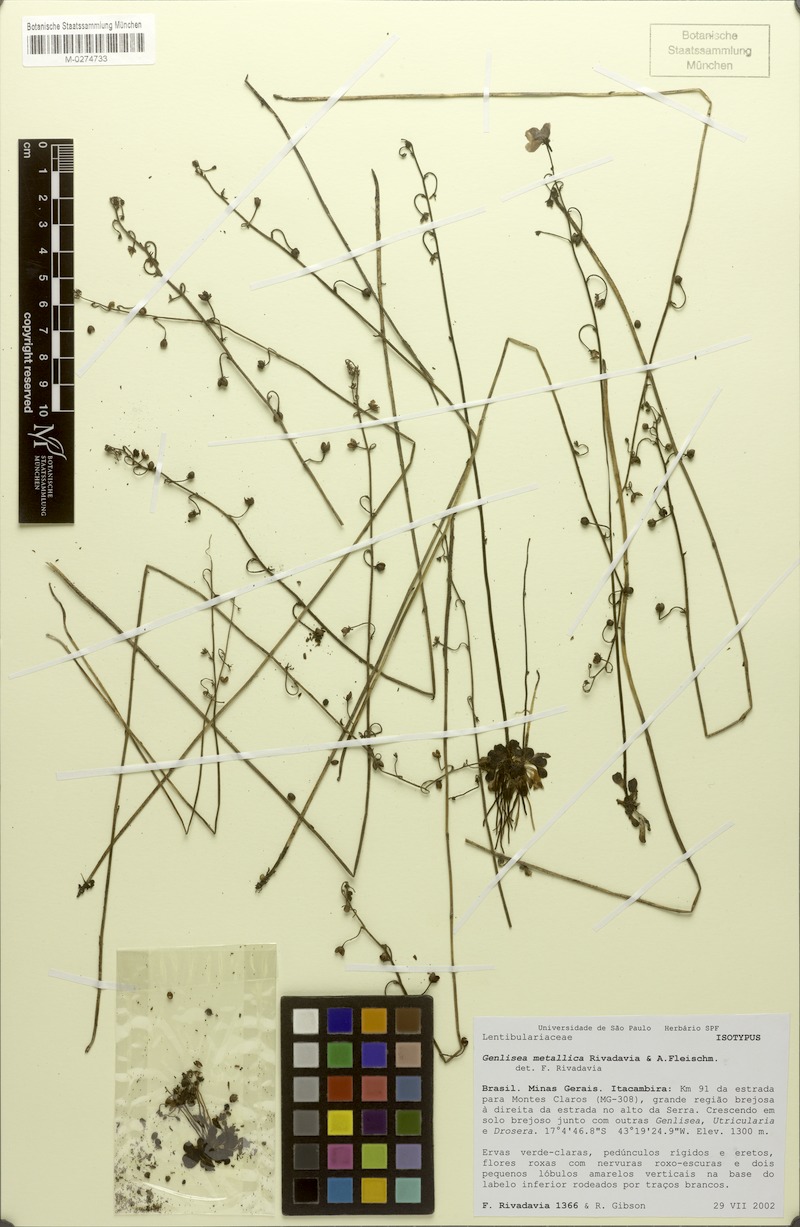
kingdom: Plantae
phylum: Tracheophyta
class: Magnoliopsida
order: Lamiales
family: Lentibulariaceae
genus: Genlisea
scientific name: Genlisea metallica
